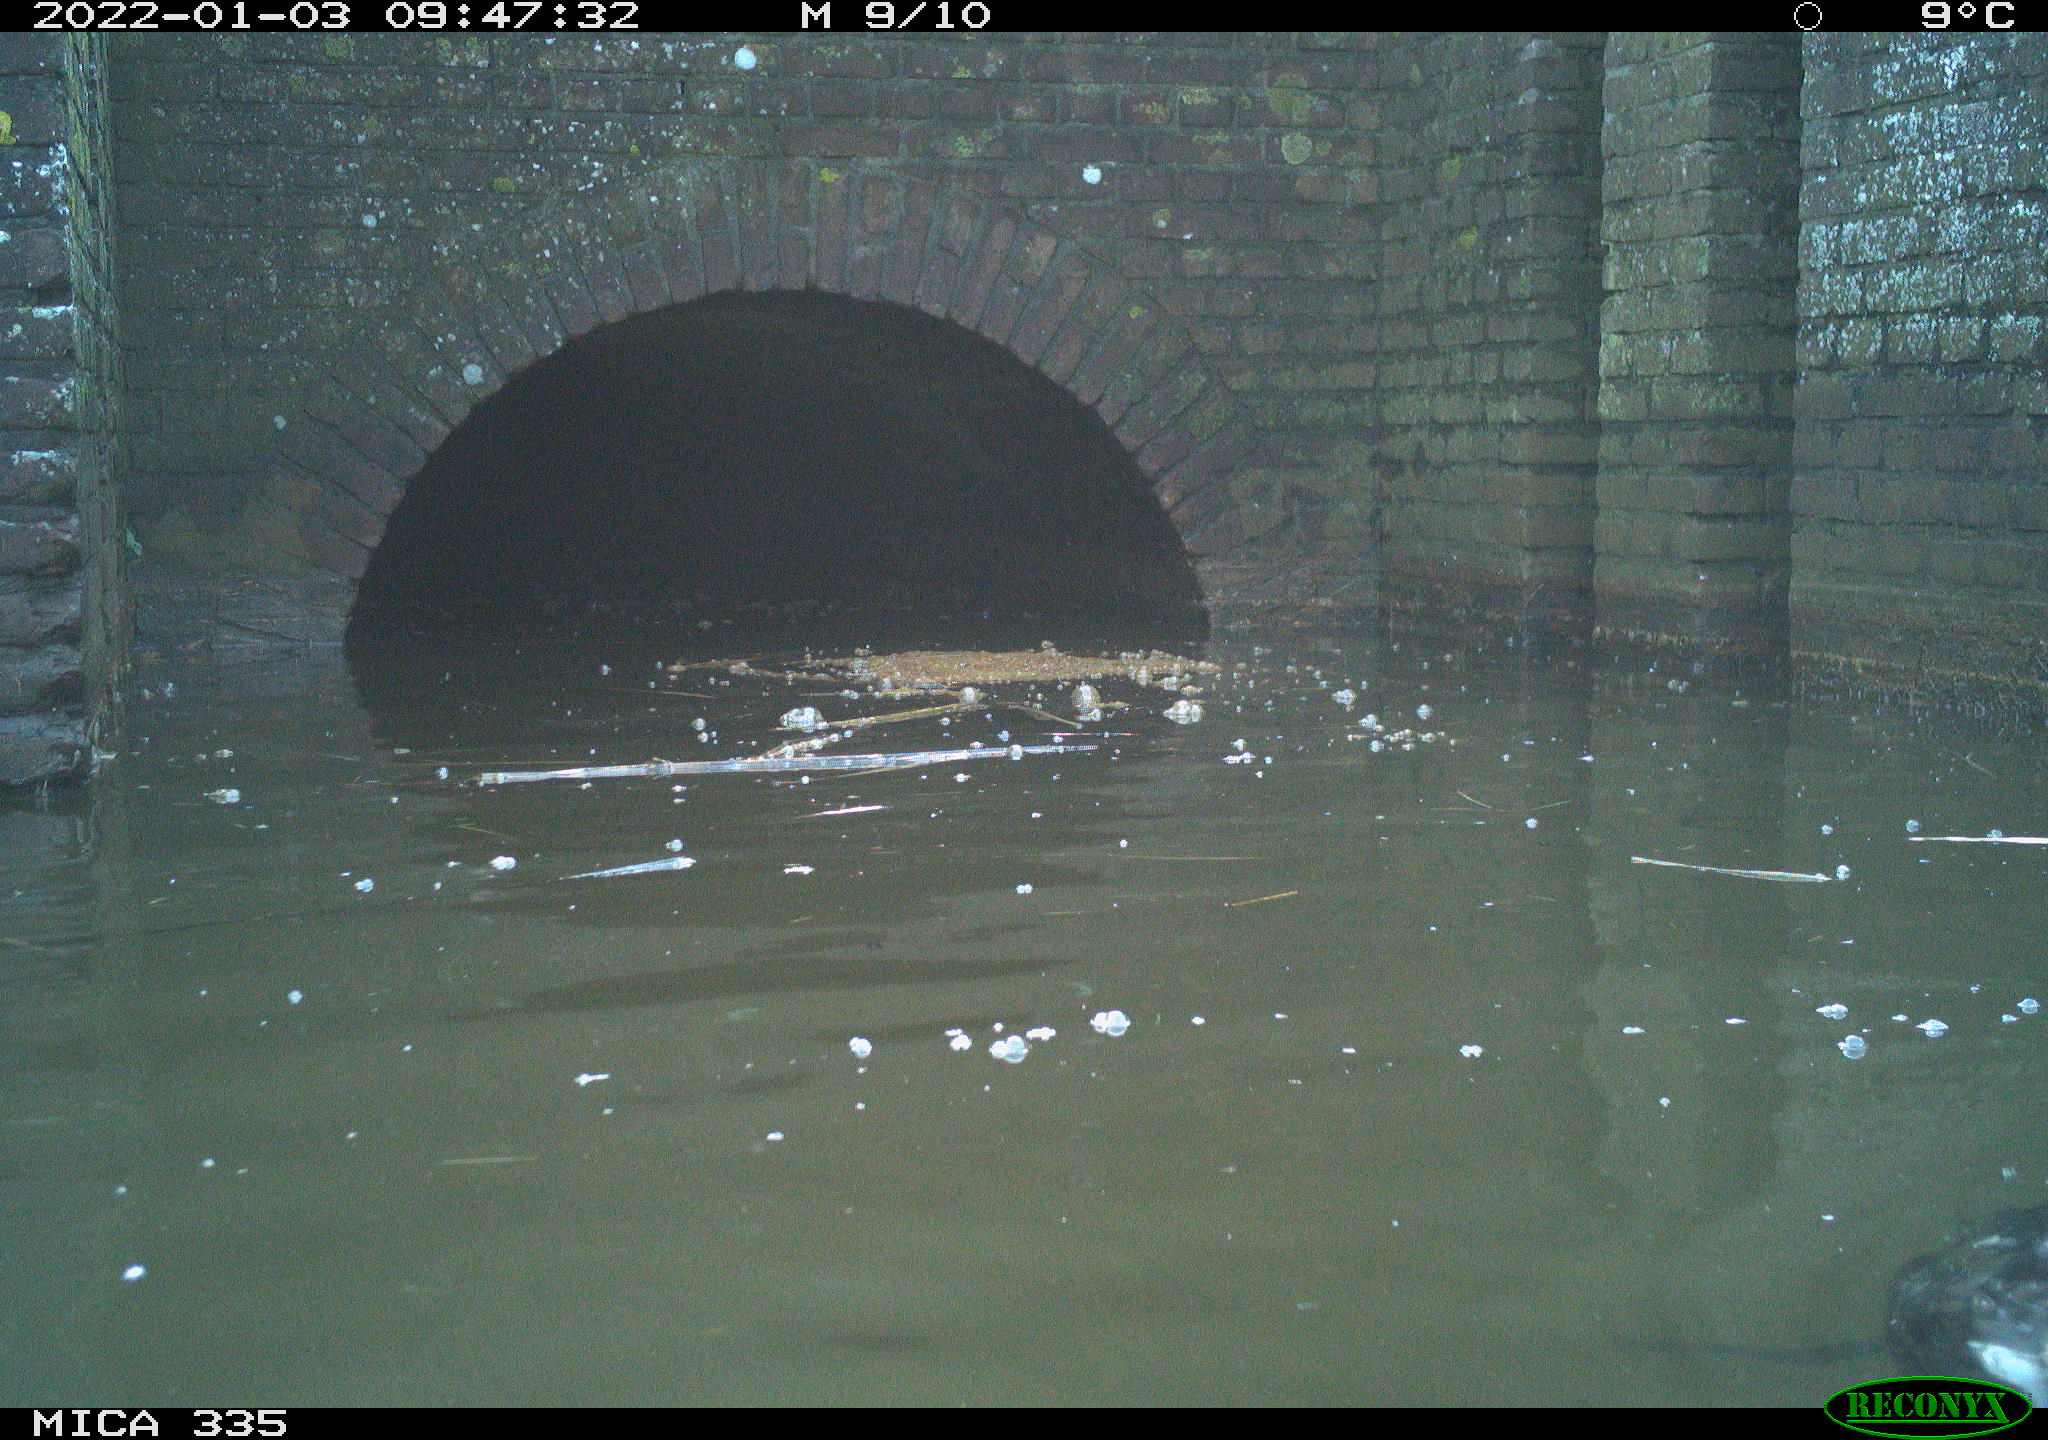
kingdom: Animalia
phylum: Chordata
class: Aves
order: Suliformes
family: Phalacrocoracidae
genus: Phalacrocorax
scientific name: Phalacrocorax carbo
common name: Great cormorant
